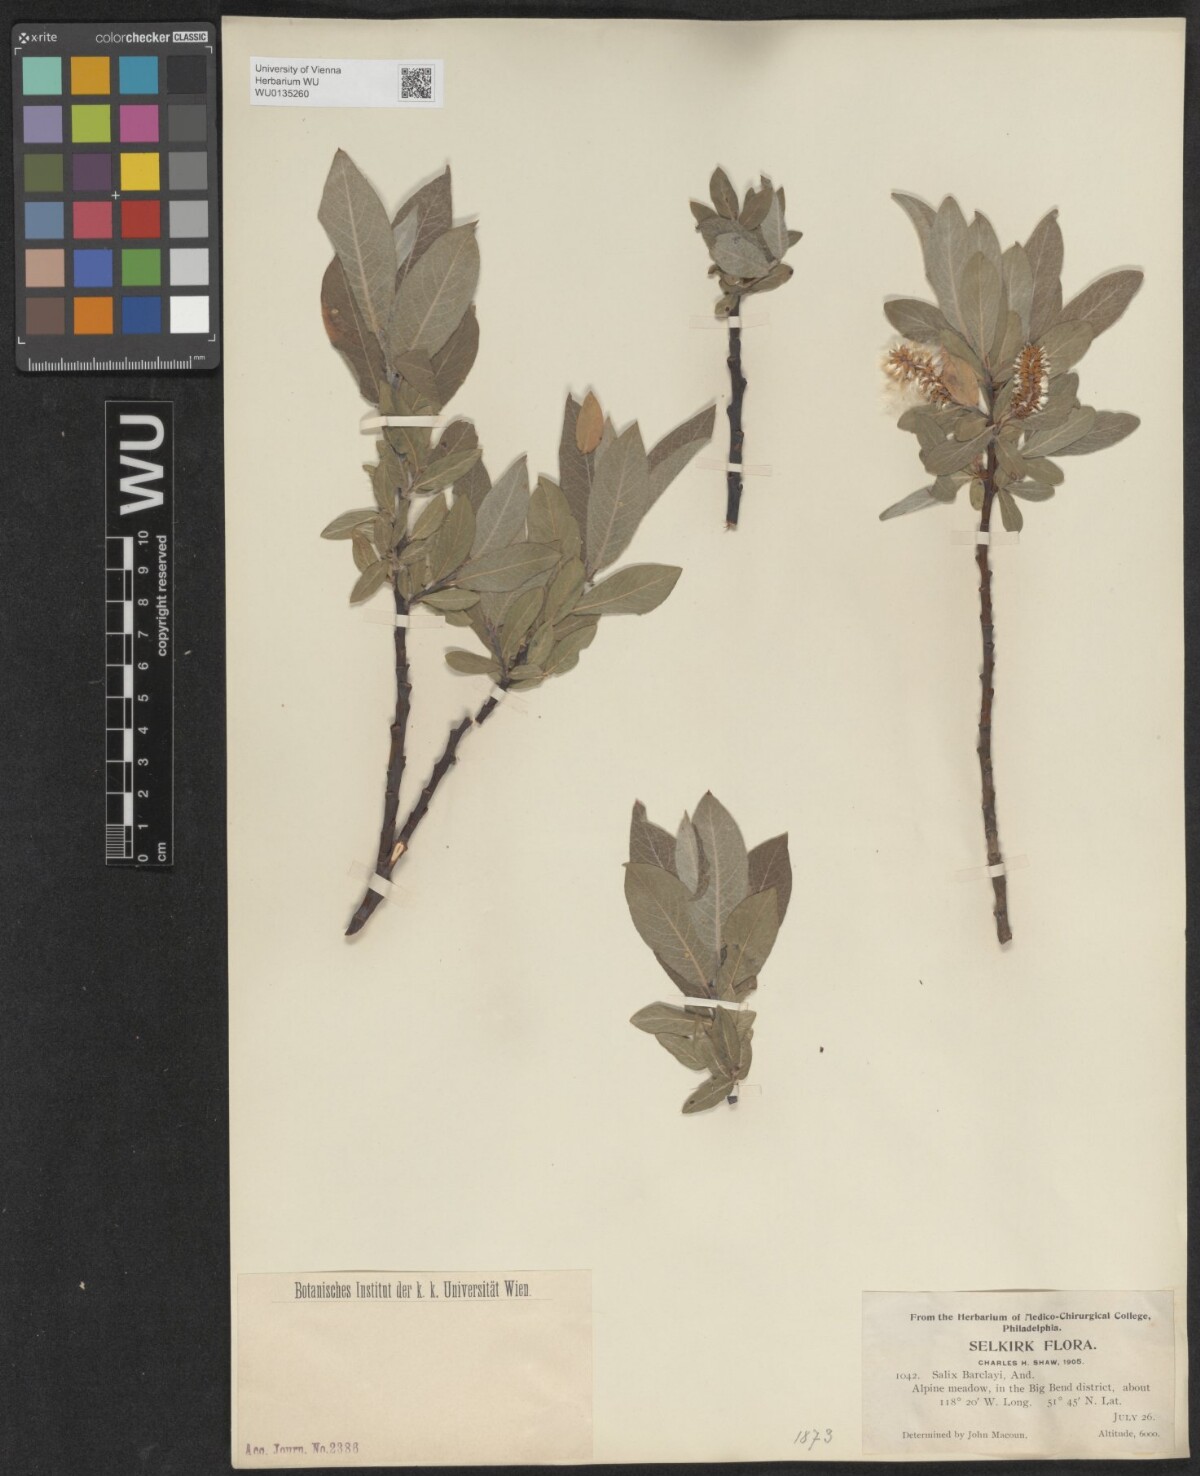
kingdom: Plantae
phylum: Tracheophyta
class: Magnoliopsida
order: Malpighiales
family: Salicaceae
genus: Salix
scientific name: Salix barclayi
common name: Mountain willow
